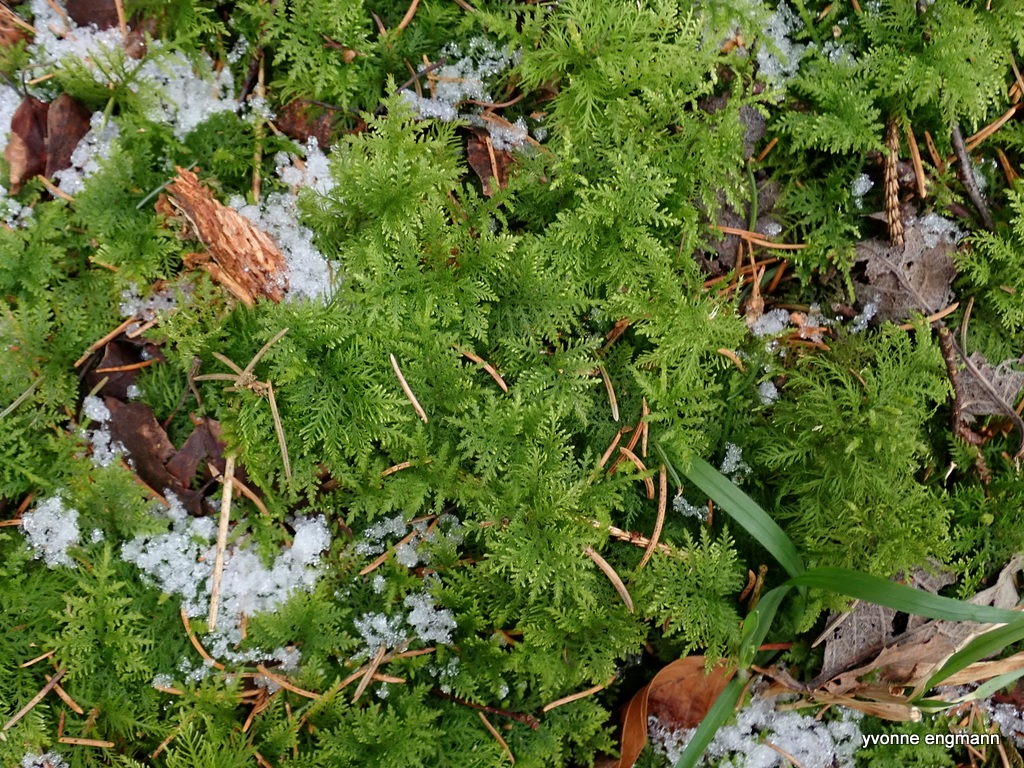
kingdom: Plantae
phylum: Bryophyta
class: Bryopsida
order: Hypnales
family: Thuidiaceae
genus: Thuidium
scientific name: Thuidium tamariscinum
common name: Pryd-bregnemos
